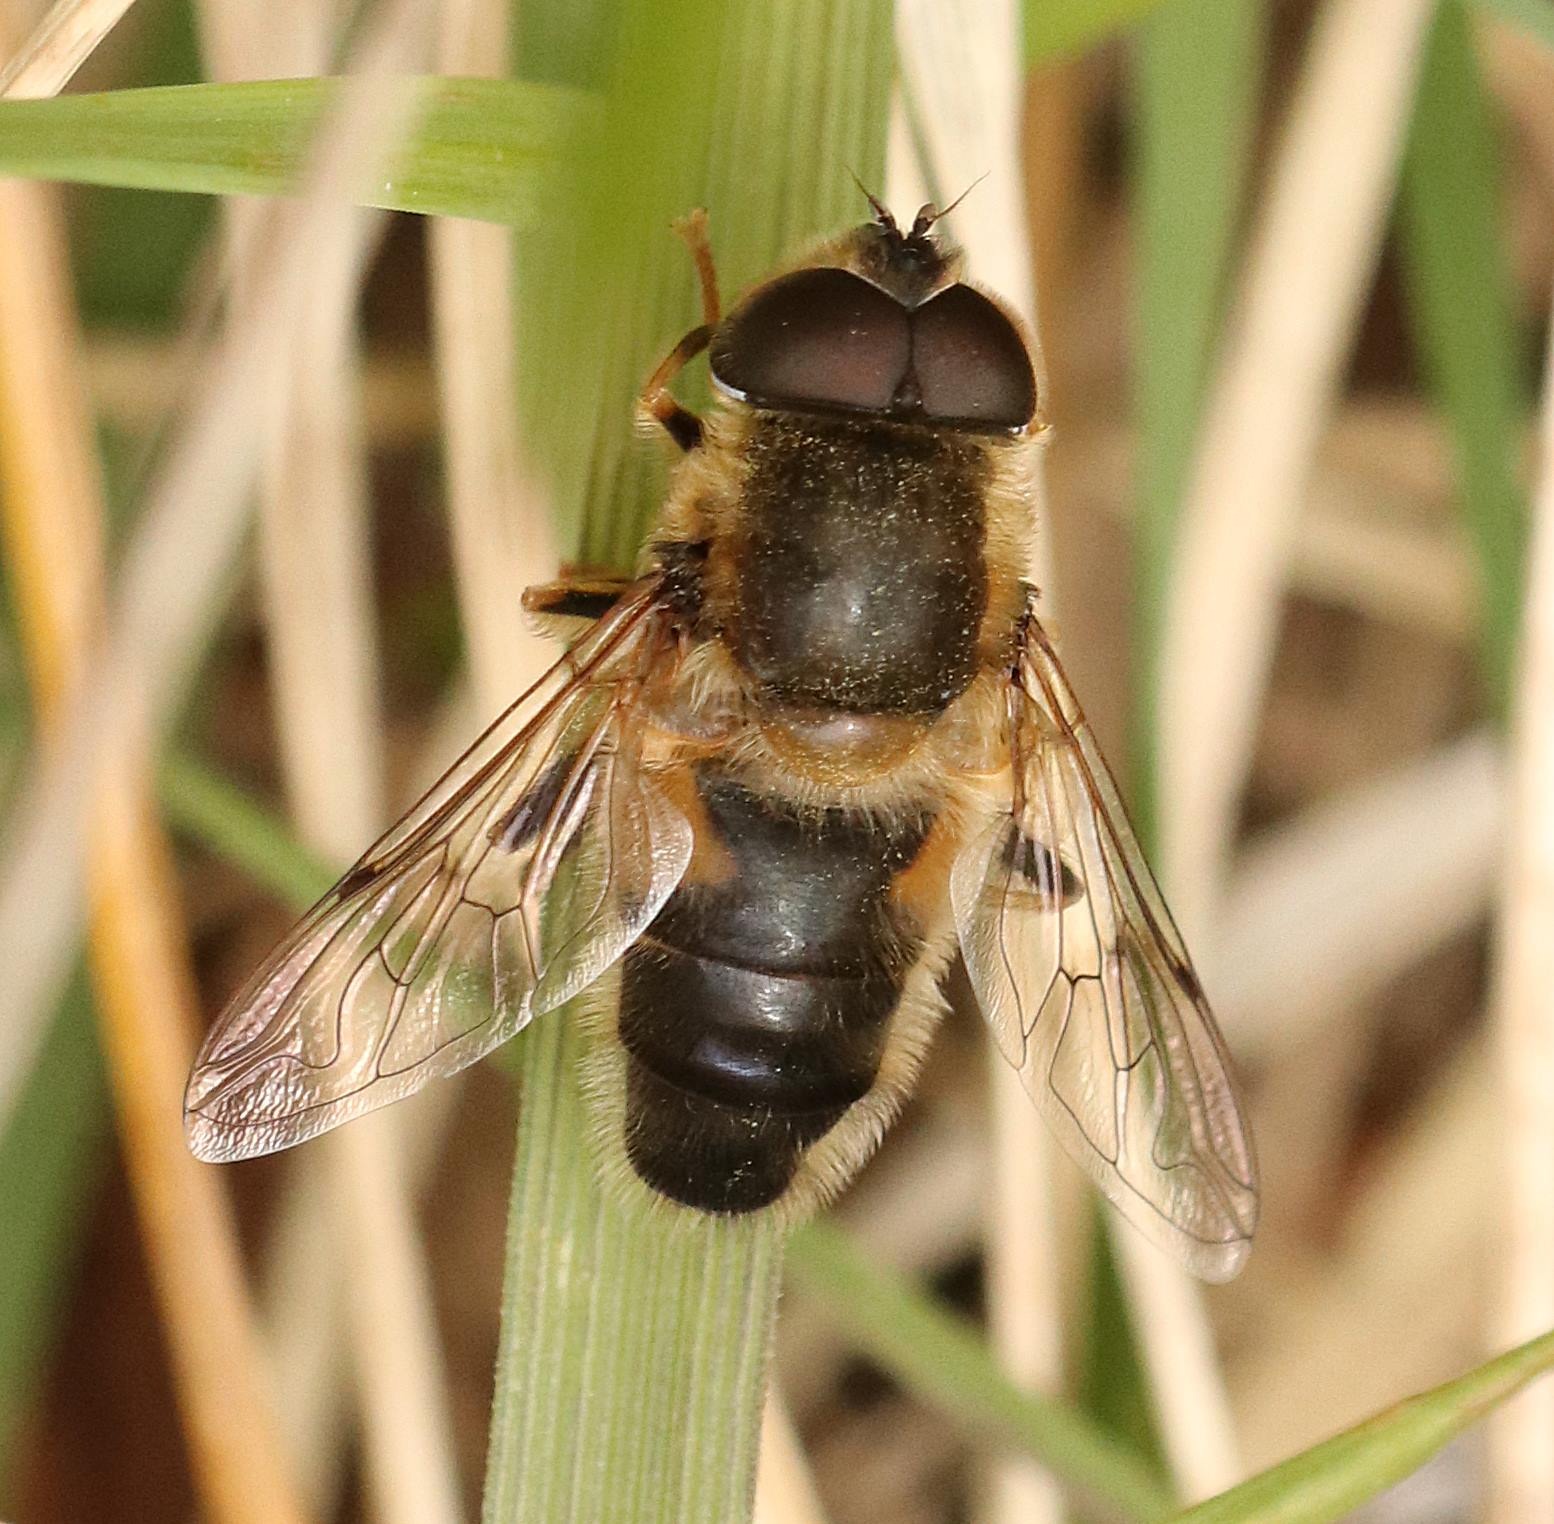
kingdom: Animalia
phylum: Arthropoda
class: Insecta
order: Diptera
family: Syrphidae
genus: Eristalis
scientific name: Eristalis pertinax
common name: Gulfodet dyndflue
